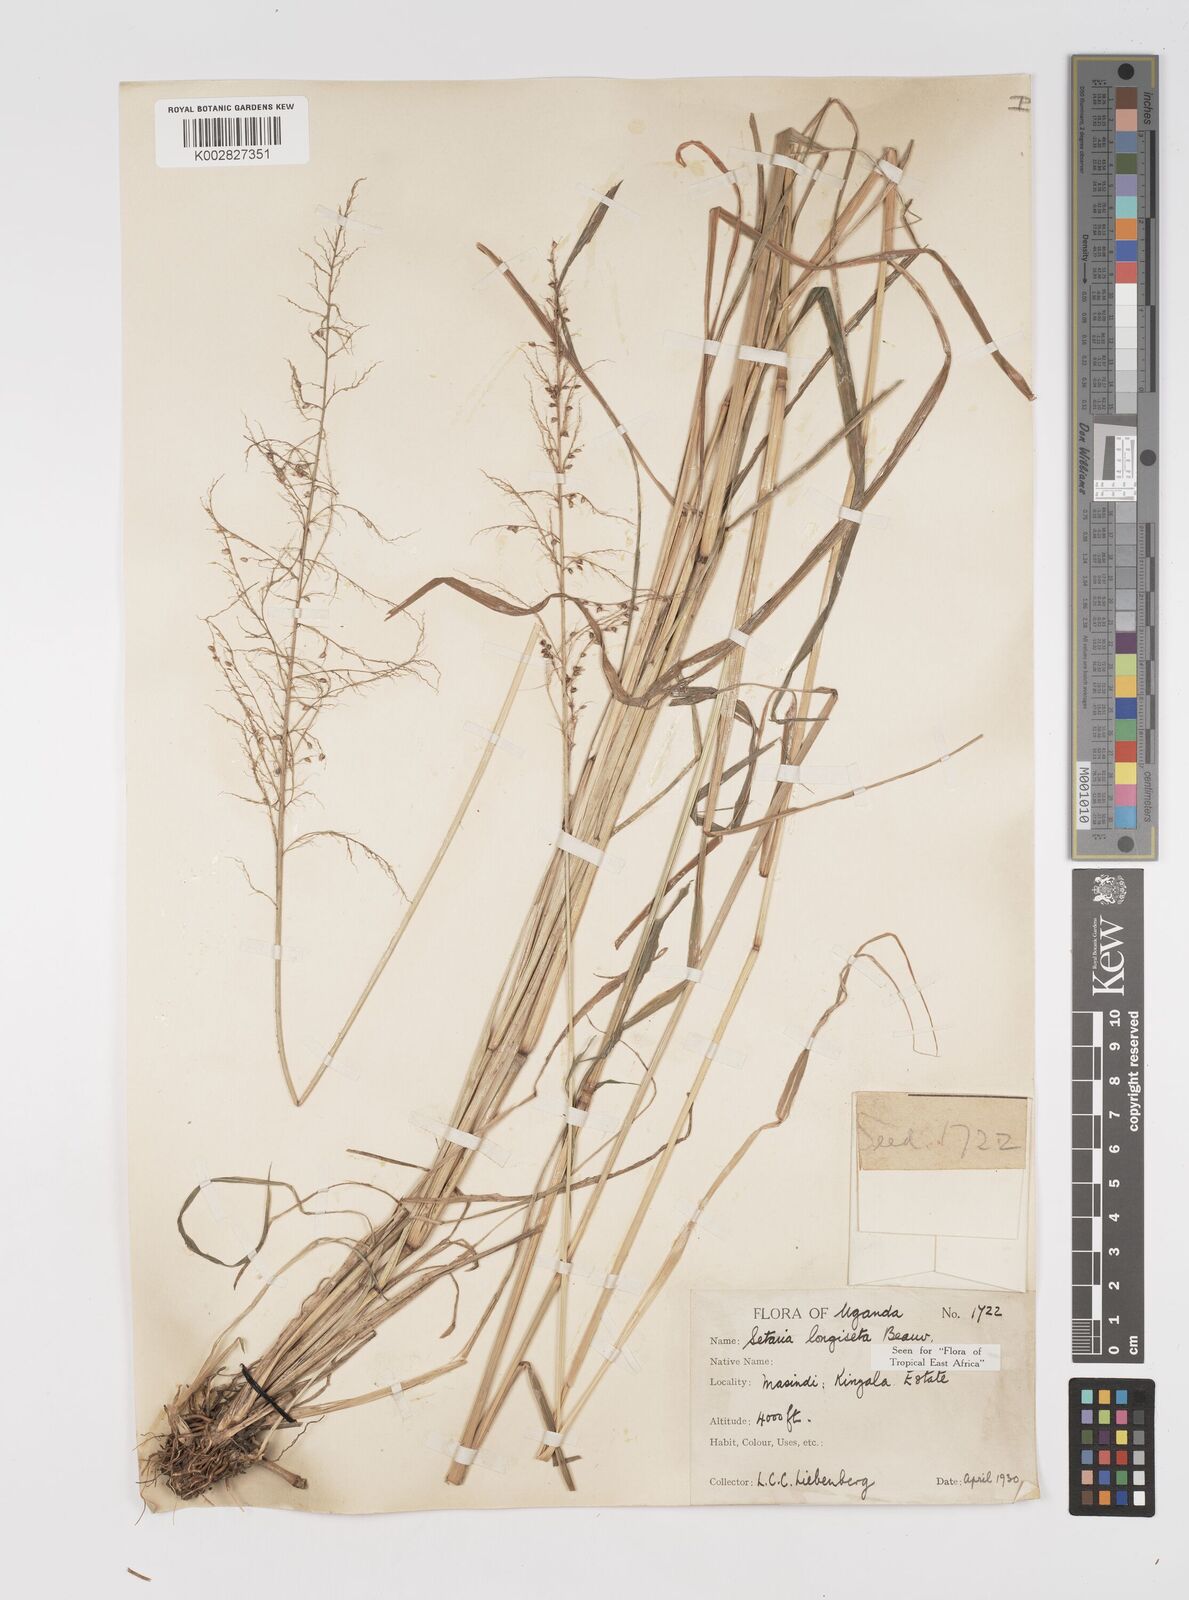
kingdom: Plantae
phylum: Tracheophyta
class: Liliopsida
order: Poales
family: Poaceae
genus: Setaria
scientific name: Setaria longiseta
